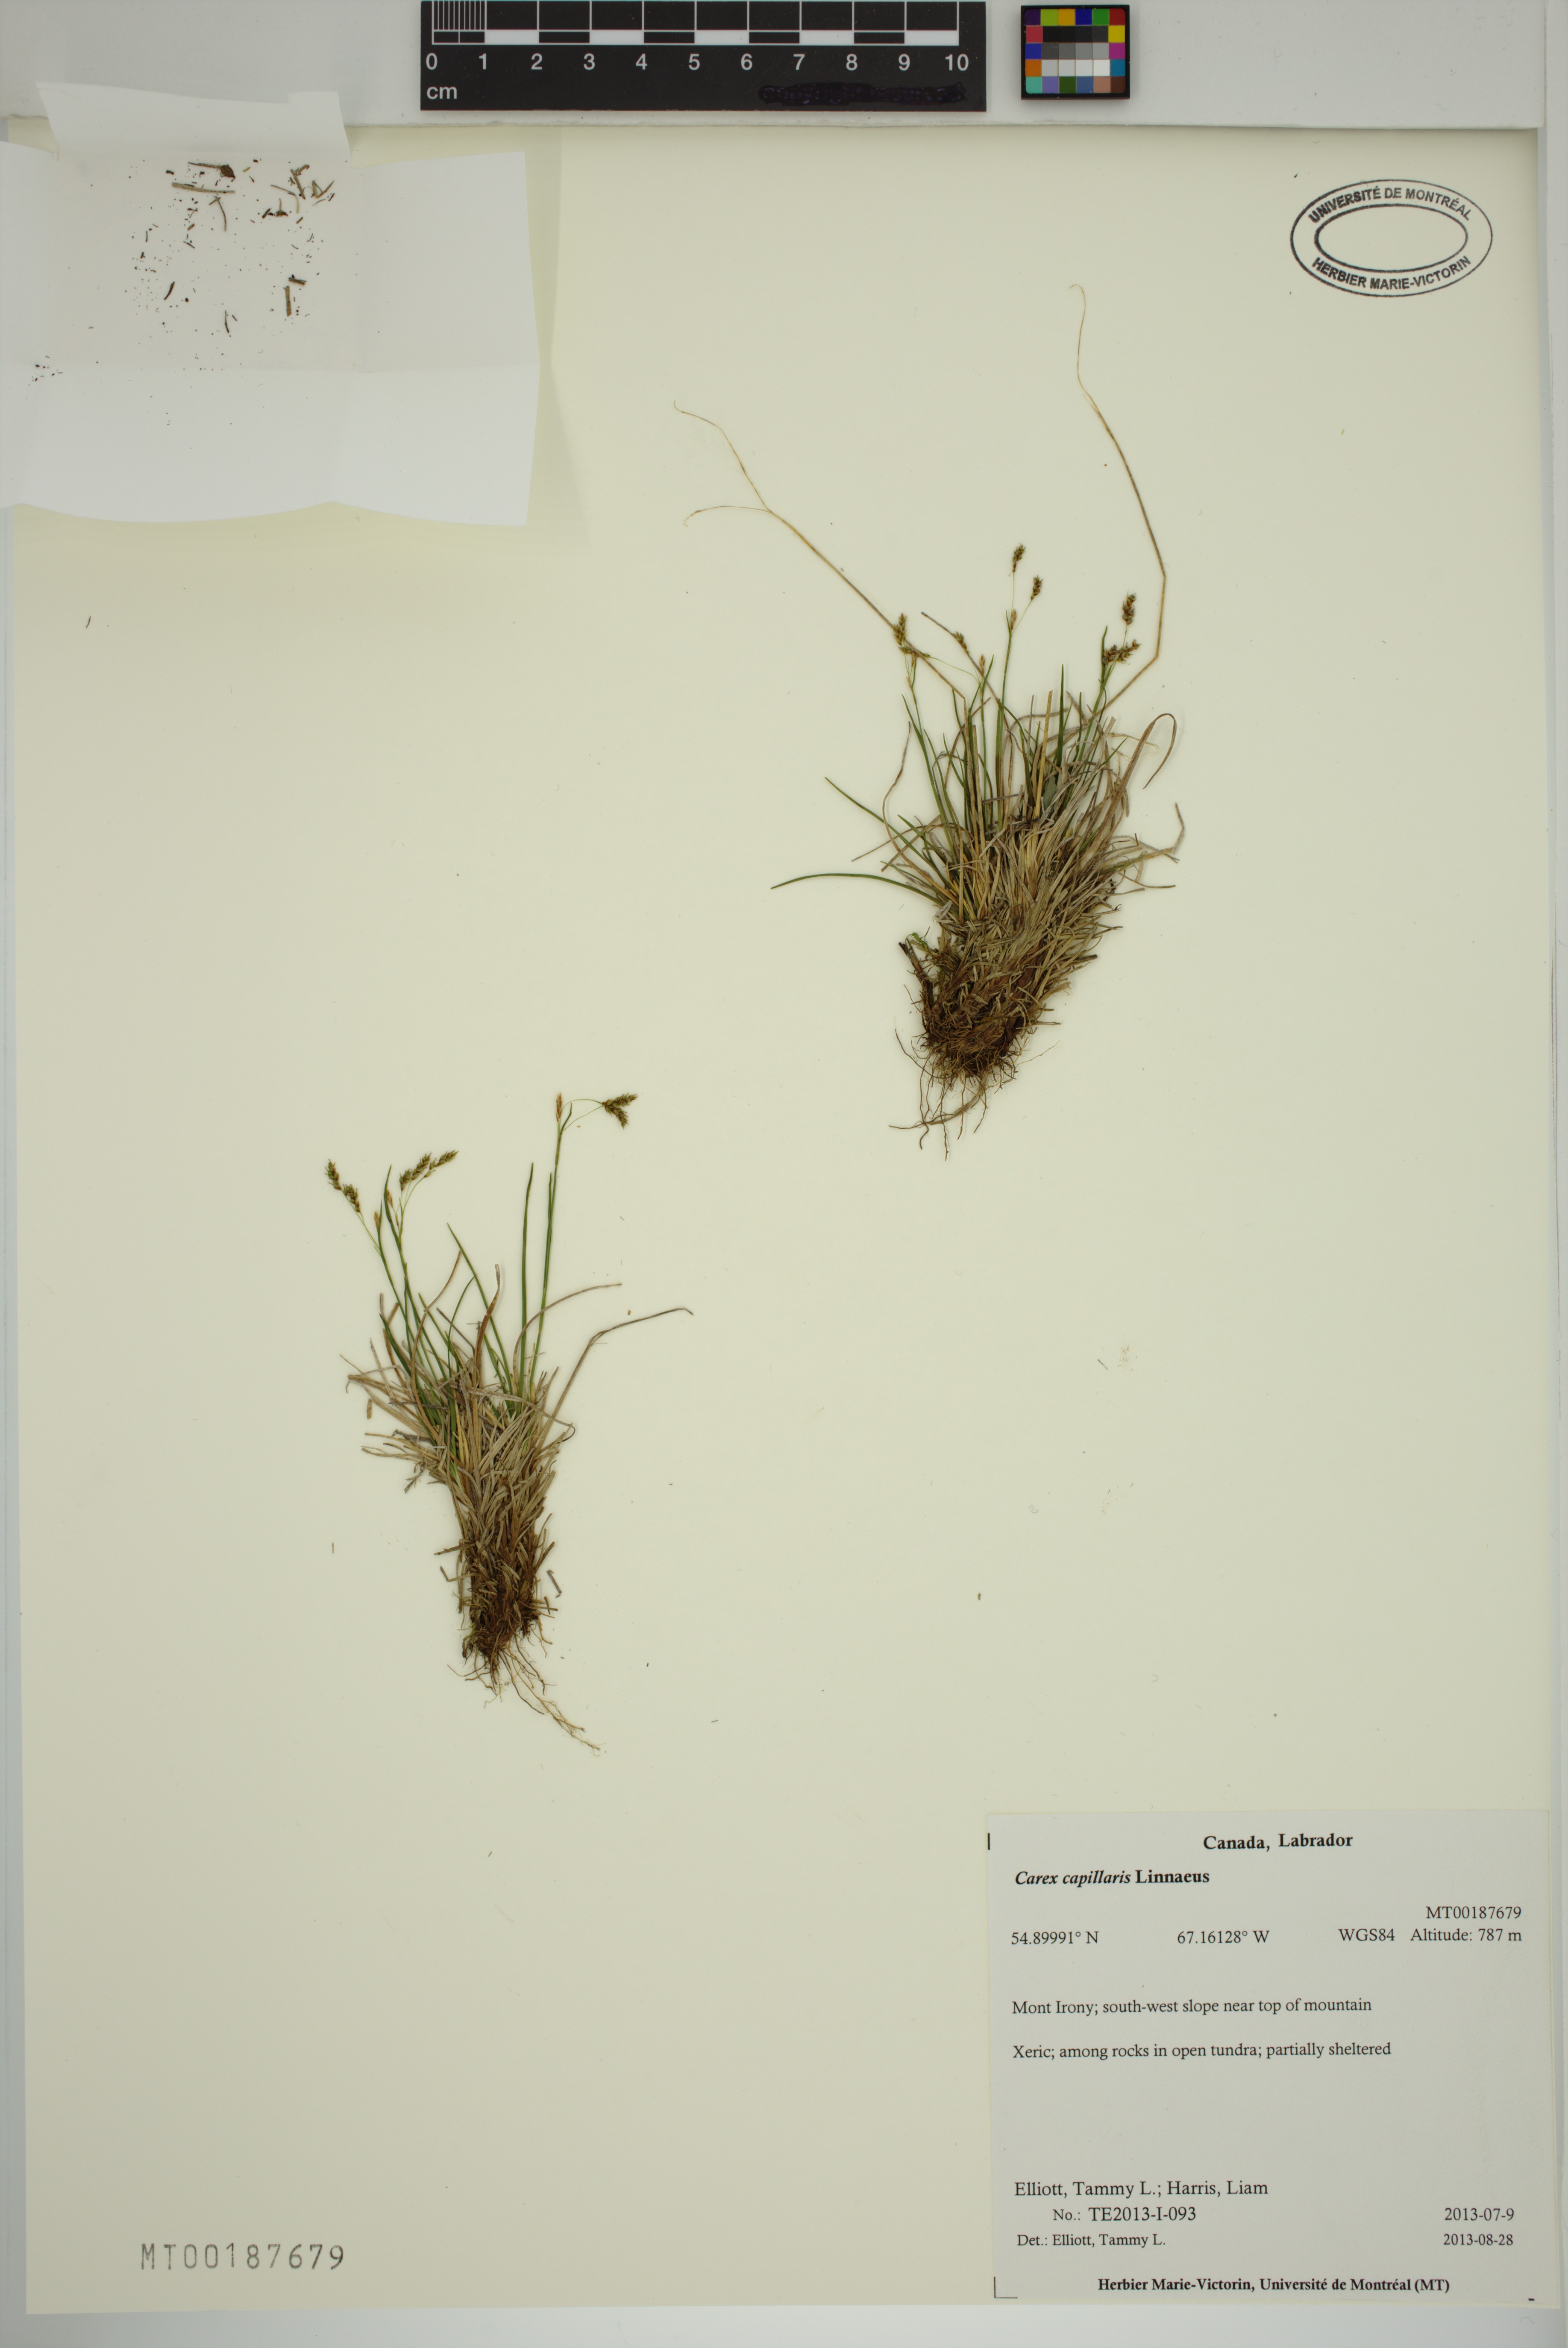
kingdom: Plantae
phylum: Tracheophyta
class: Liliopsida
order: Poales
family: Cyperaceae
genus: Carex
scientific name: Carex capillaris
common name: Hair sedge
